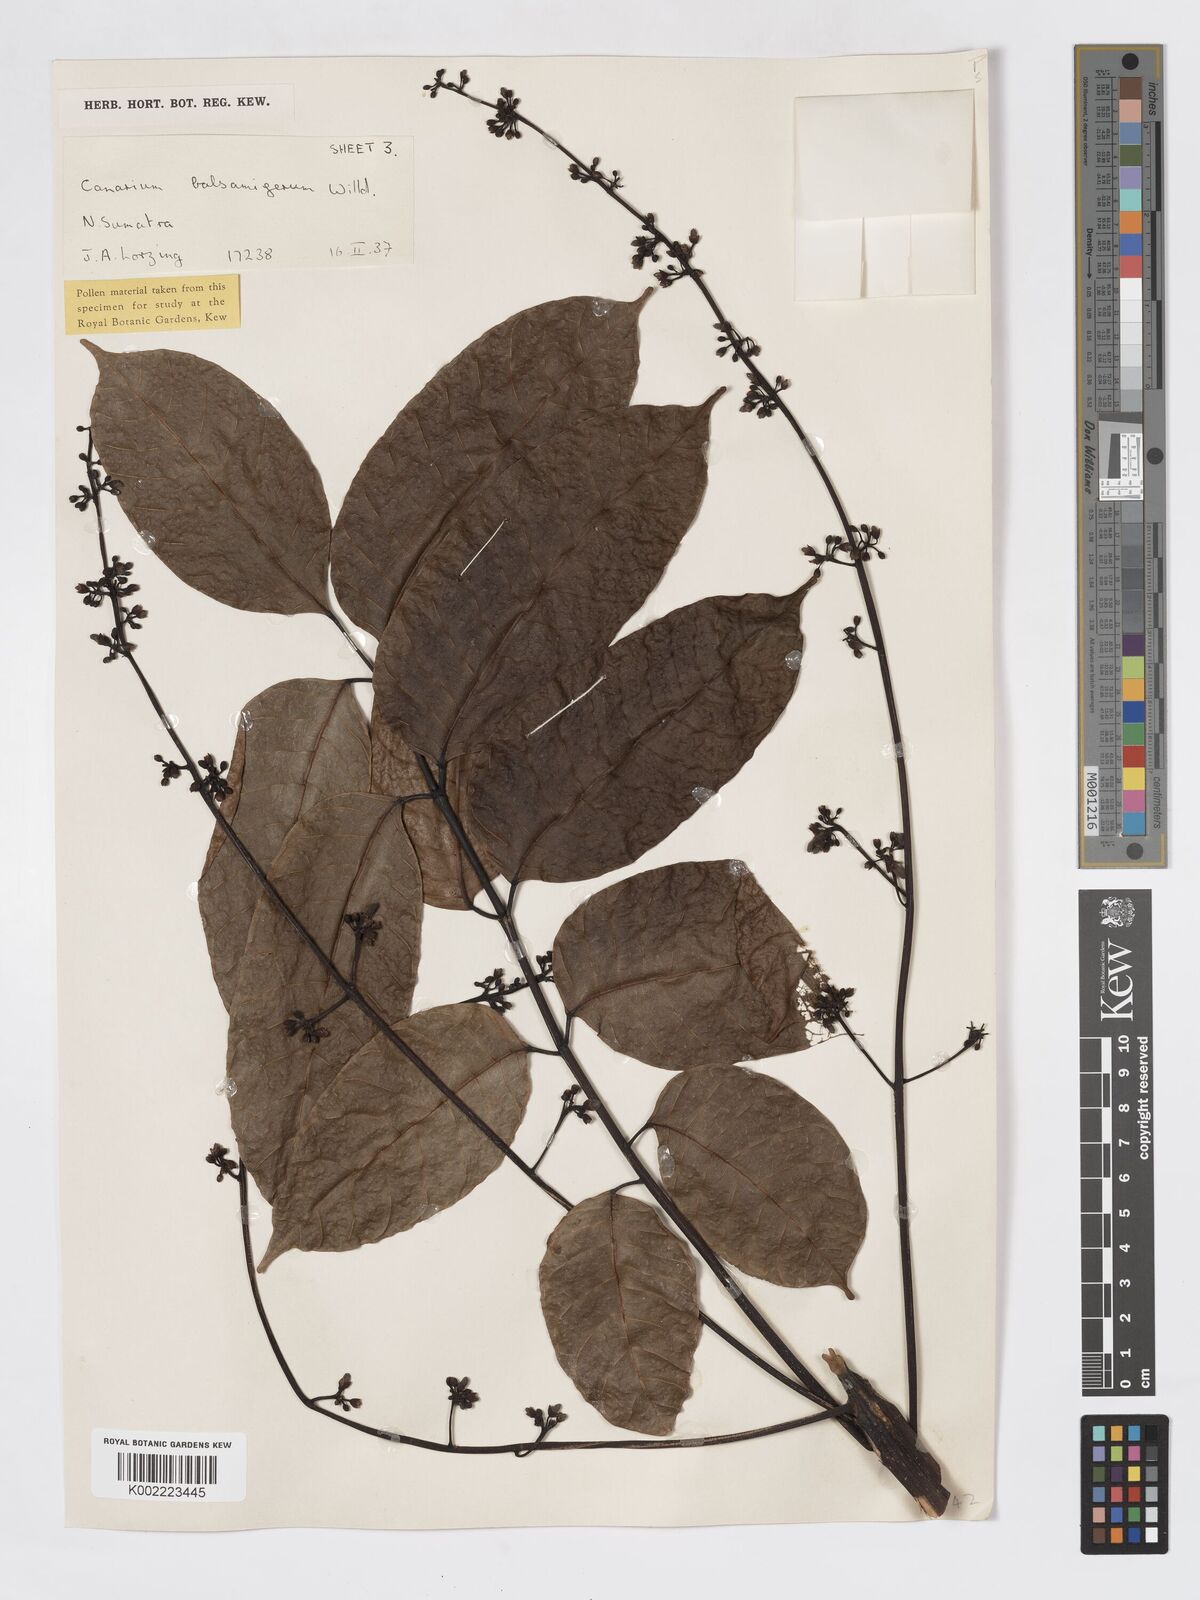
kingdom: Plantae
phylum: Tracheophyta
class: Magnoliopsida
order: Sapindales
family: Burseraceae
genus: Canarium
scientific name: Canarium
